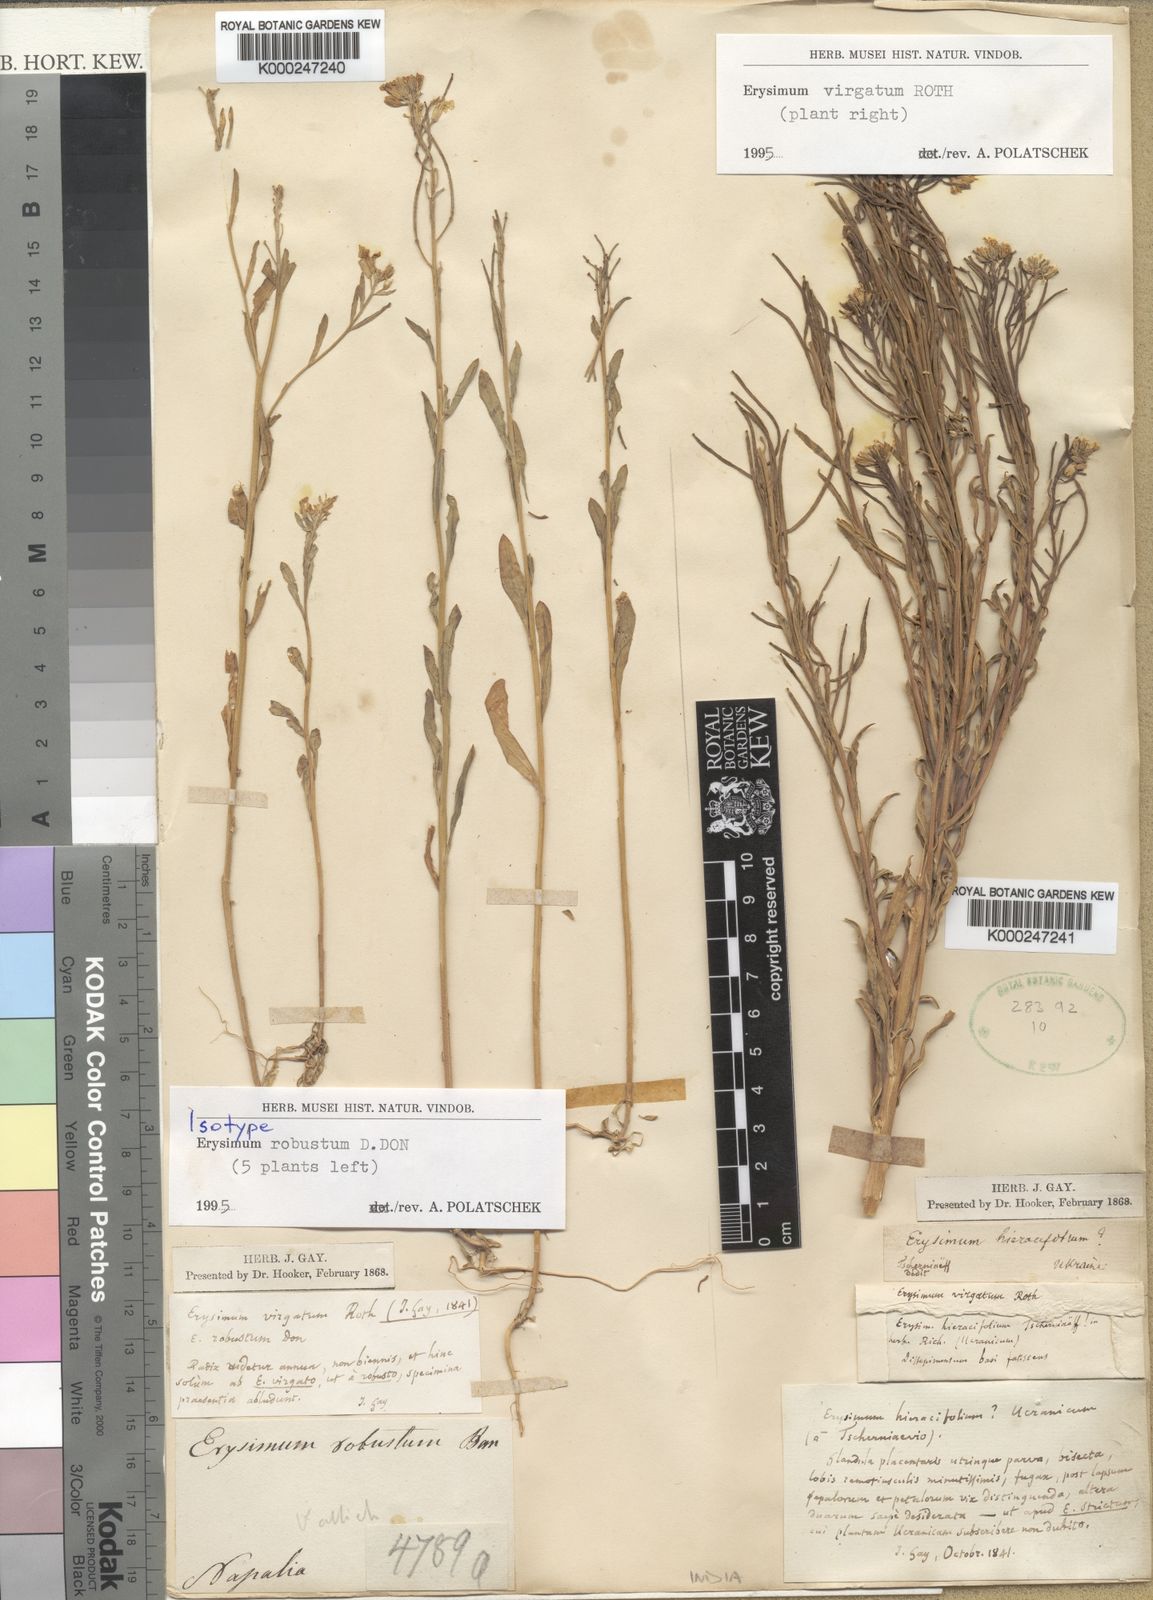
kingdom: Plantae
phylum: Tracheophyta
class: Magnoliopsida
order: Brassicales
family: Brassicaceae
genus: Erysimum
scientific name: Erysimum hieraciifolium
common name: European wallflower
